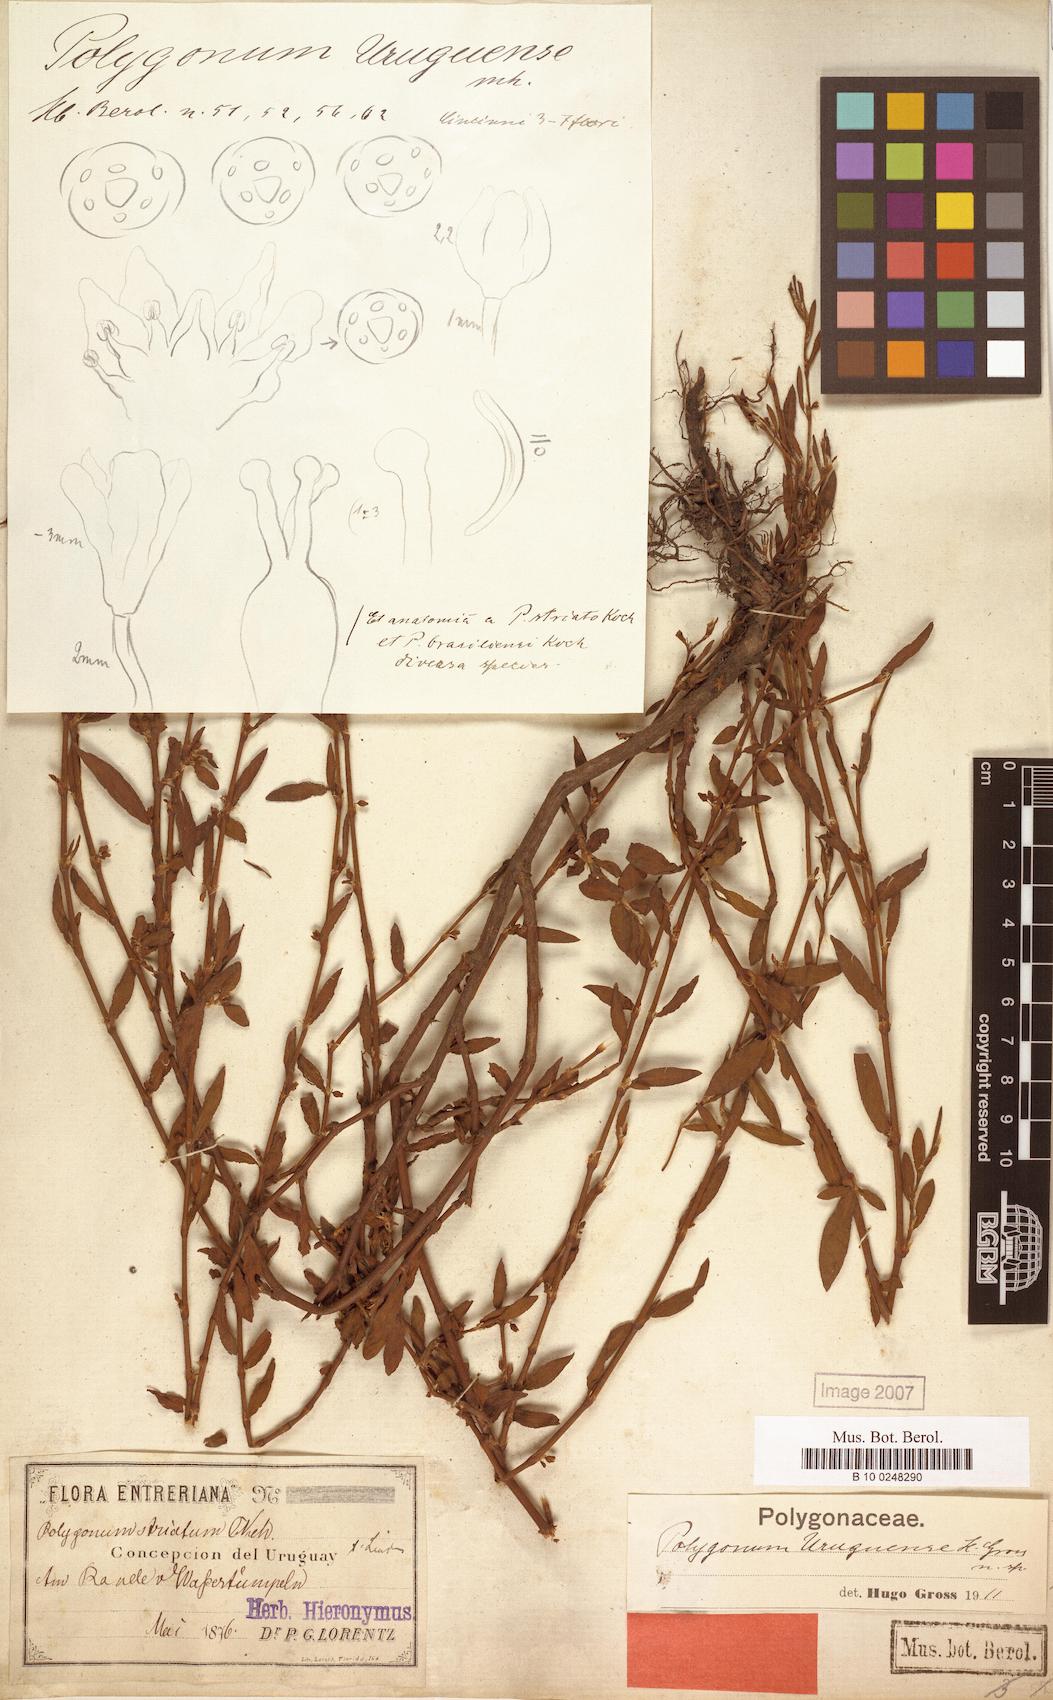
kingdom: Plantae
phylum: Tracheophyta
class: Magnoliopsida
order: Caryophyllales
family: Polygonaceae
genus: Polygonum
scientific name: Polygonum aviculare
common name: Prostrate knotweed
